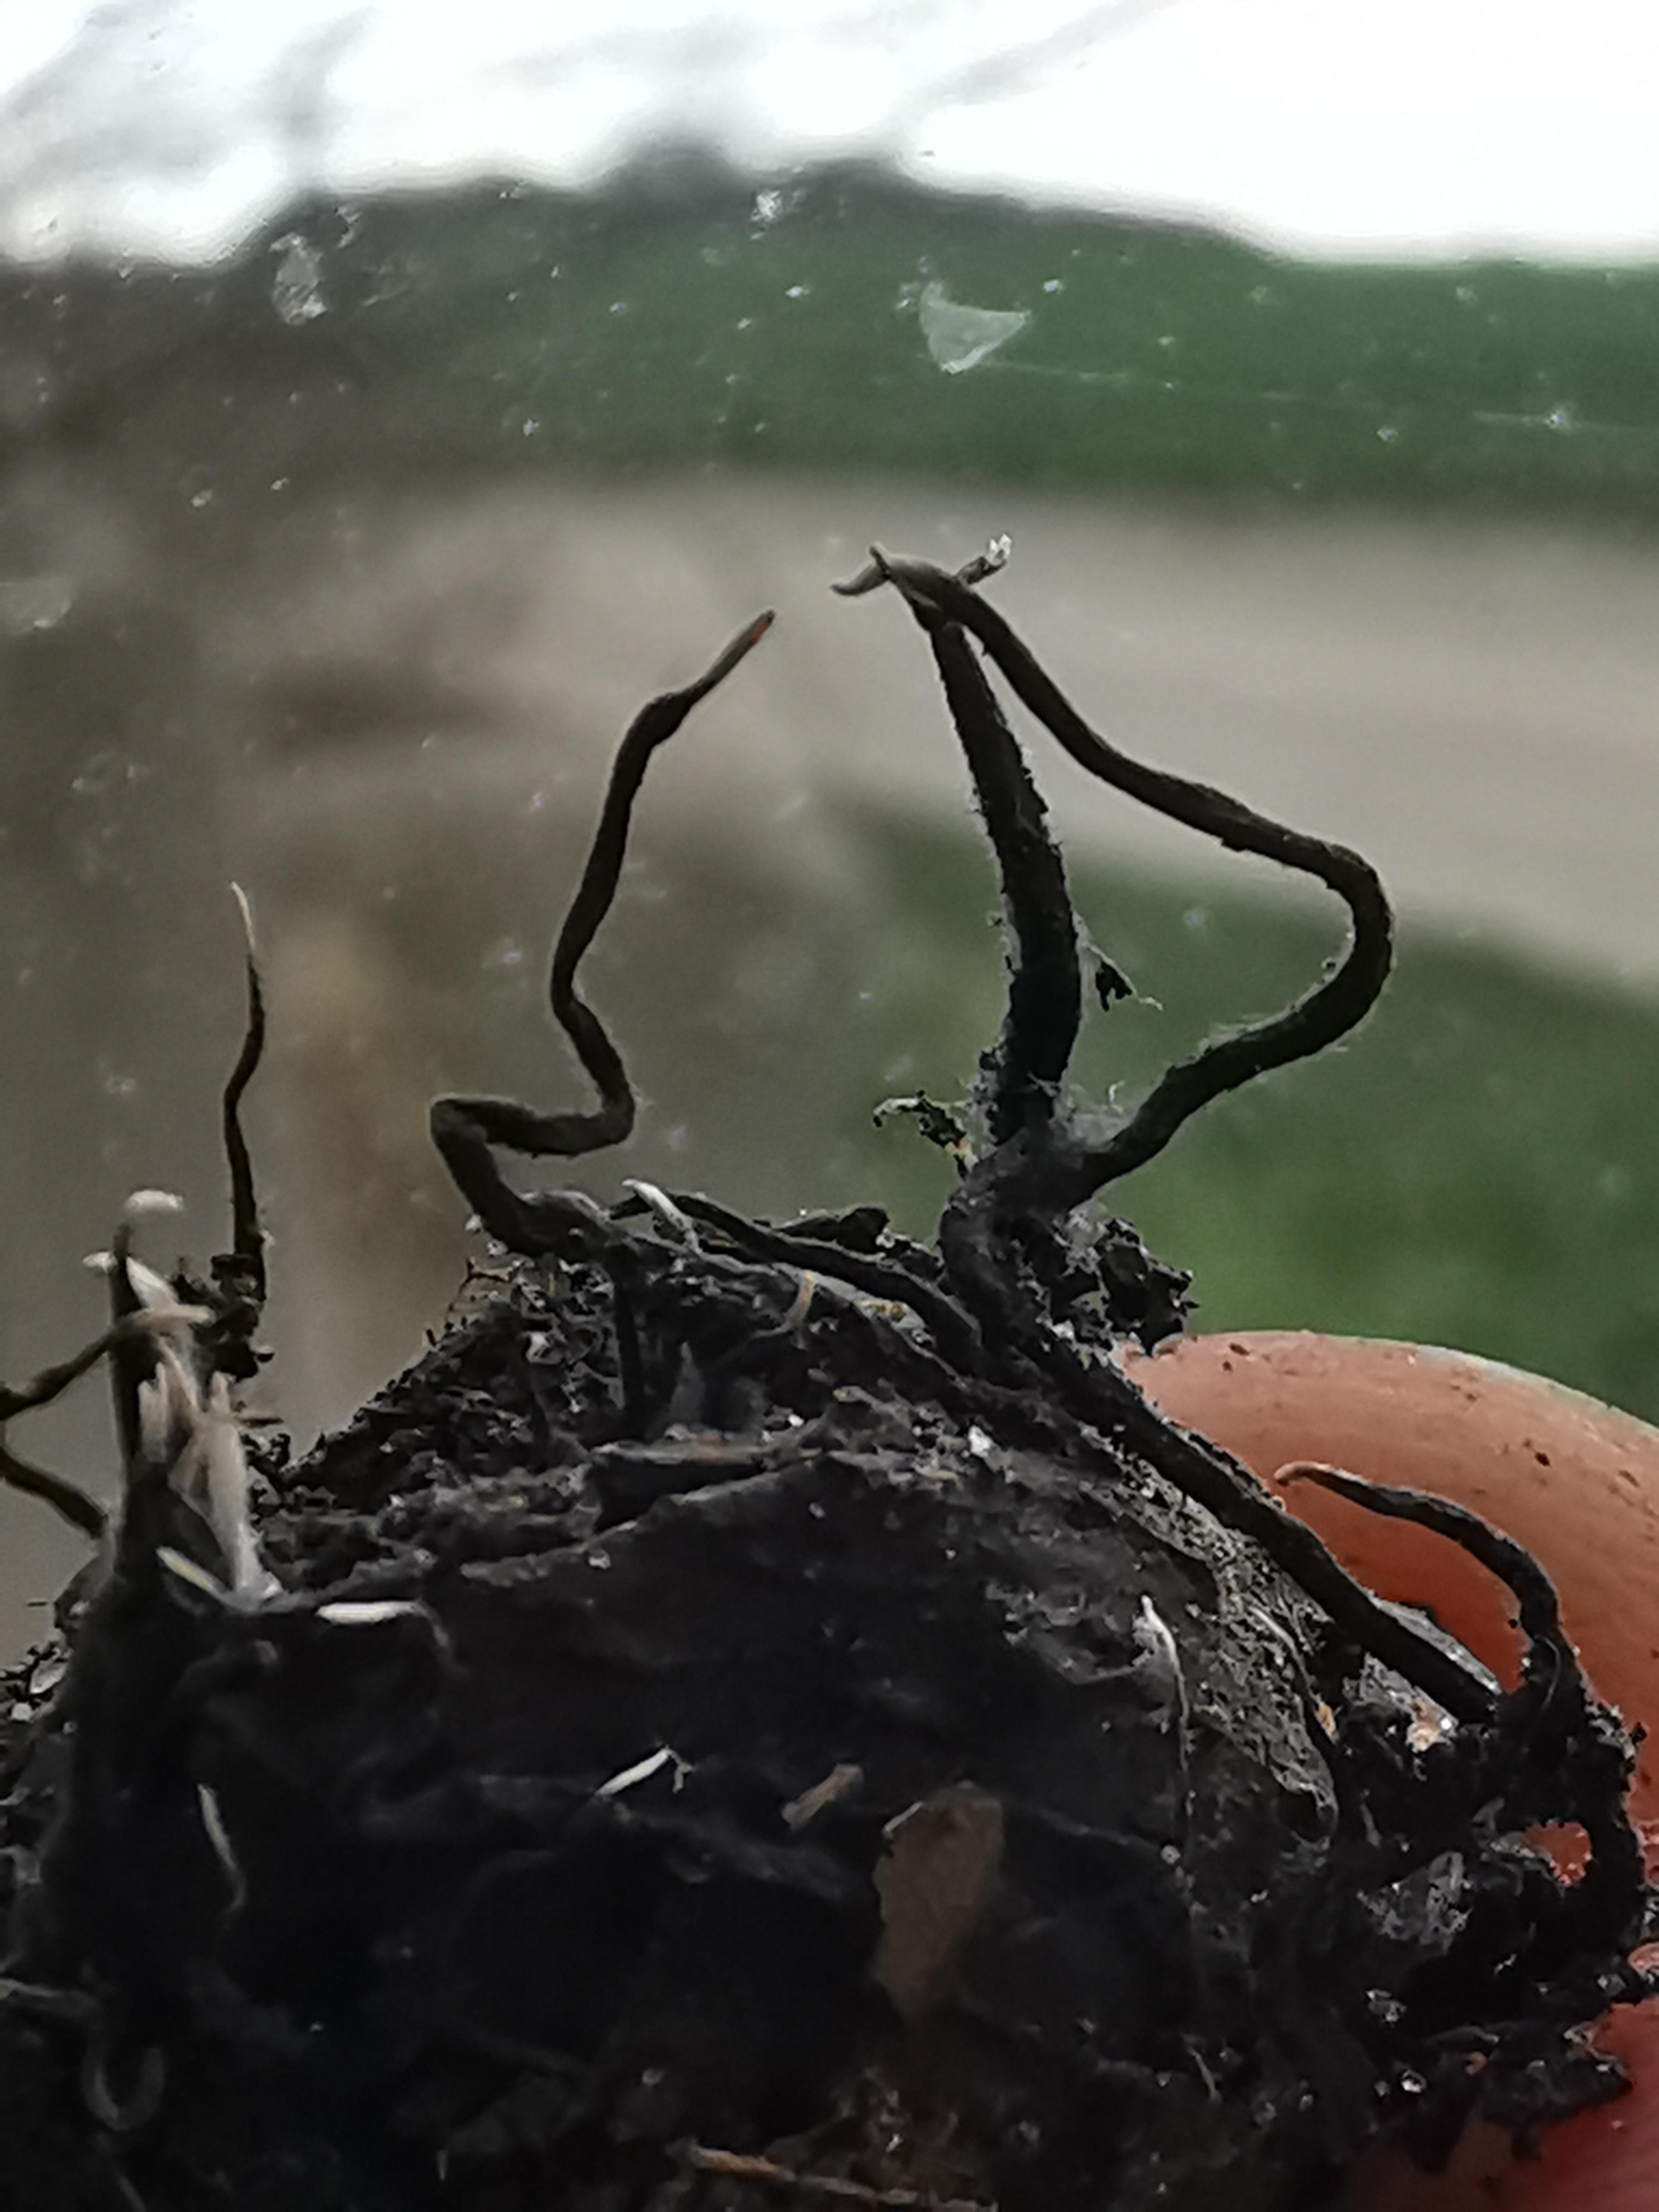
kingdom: Fungi
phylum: Ascomycota
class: Sordariomycetes
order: Xylariales
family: Xylariaceae
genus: Xylaria
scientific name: Xylaria carpophila
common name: bogskål-stødsvamp
